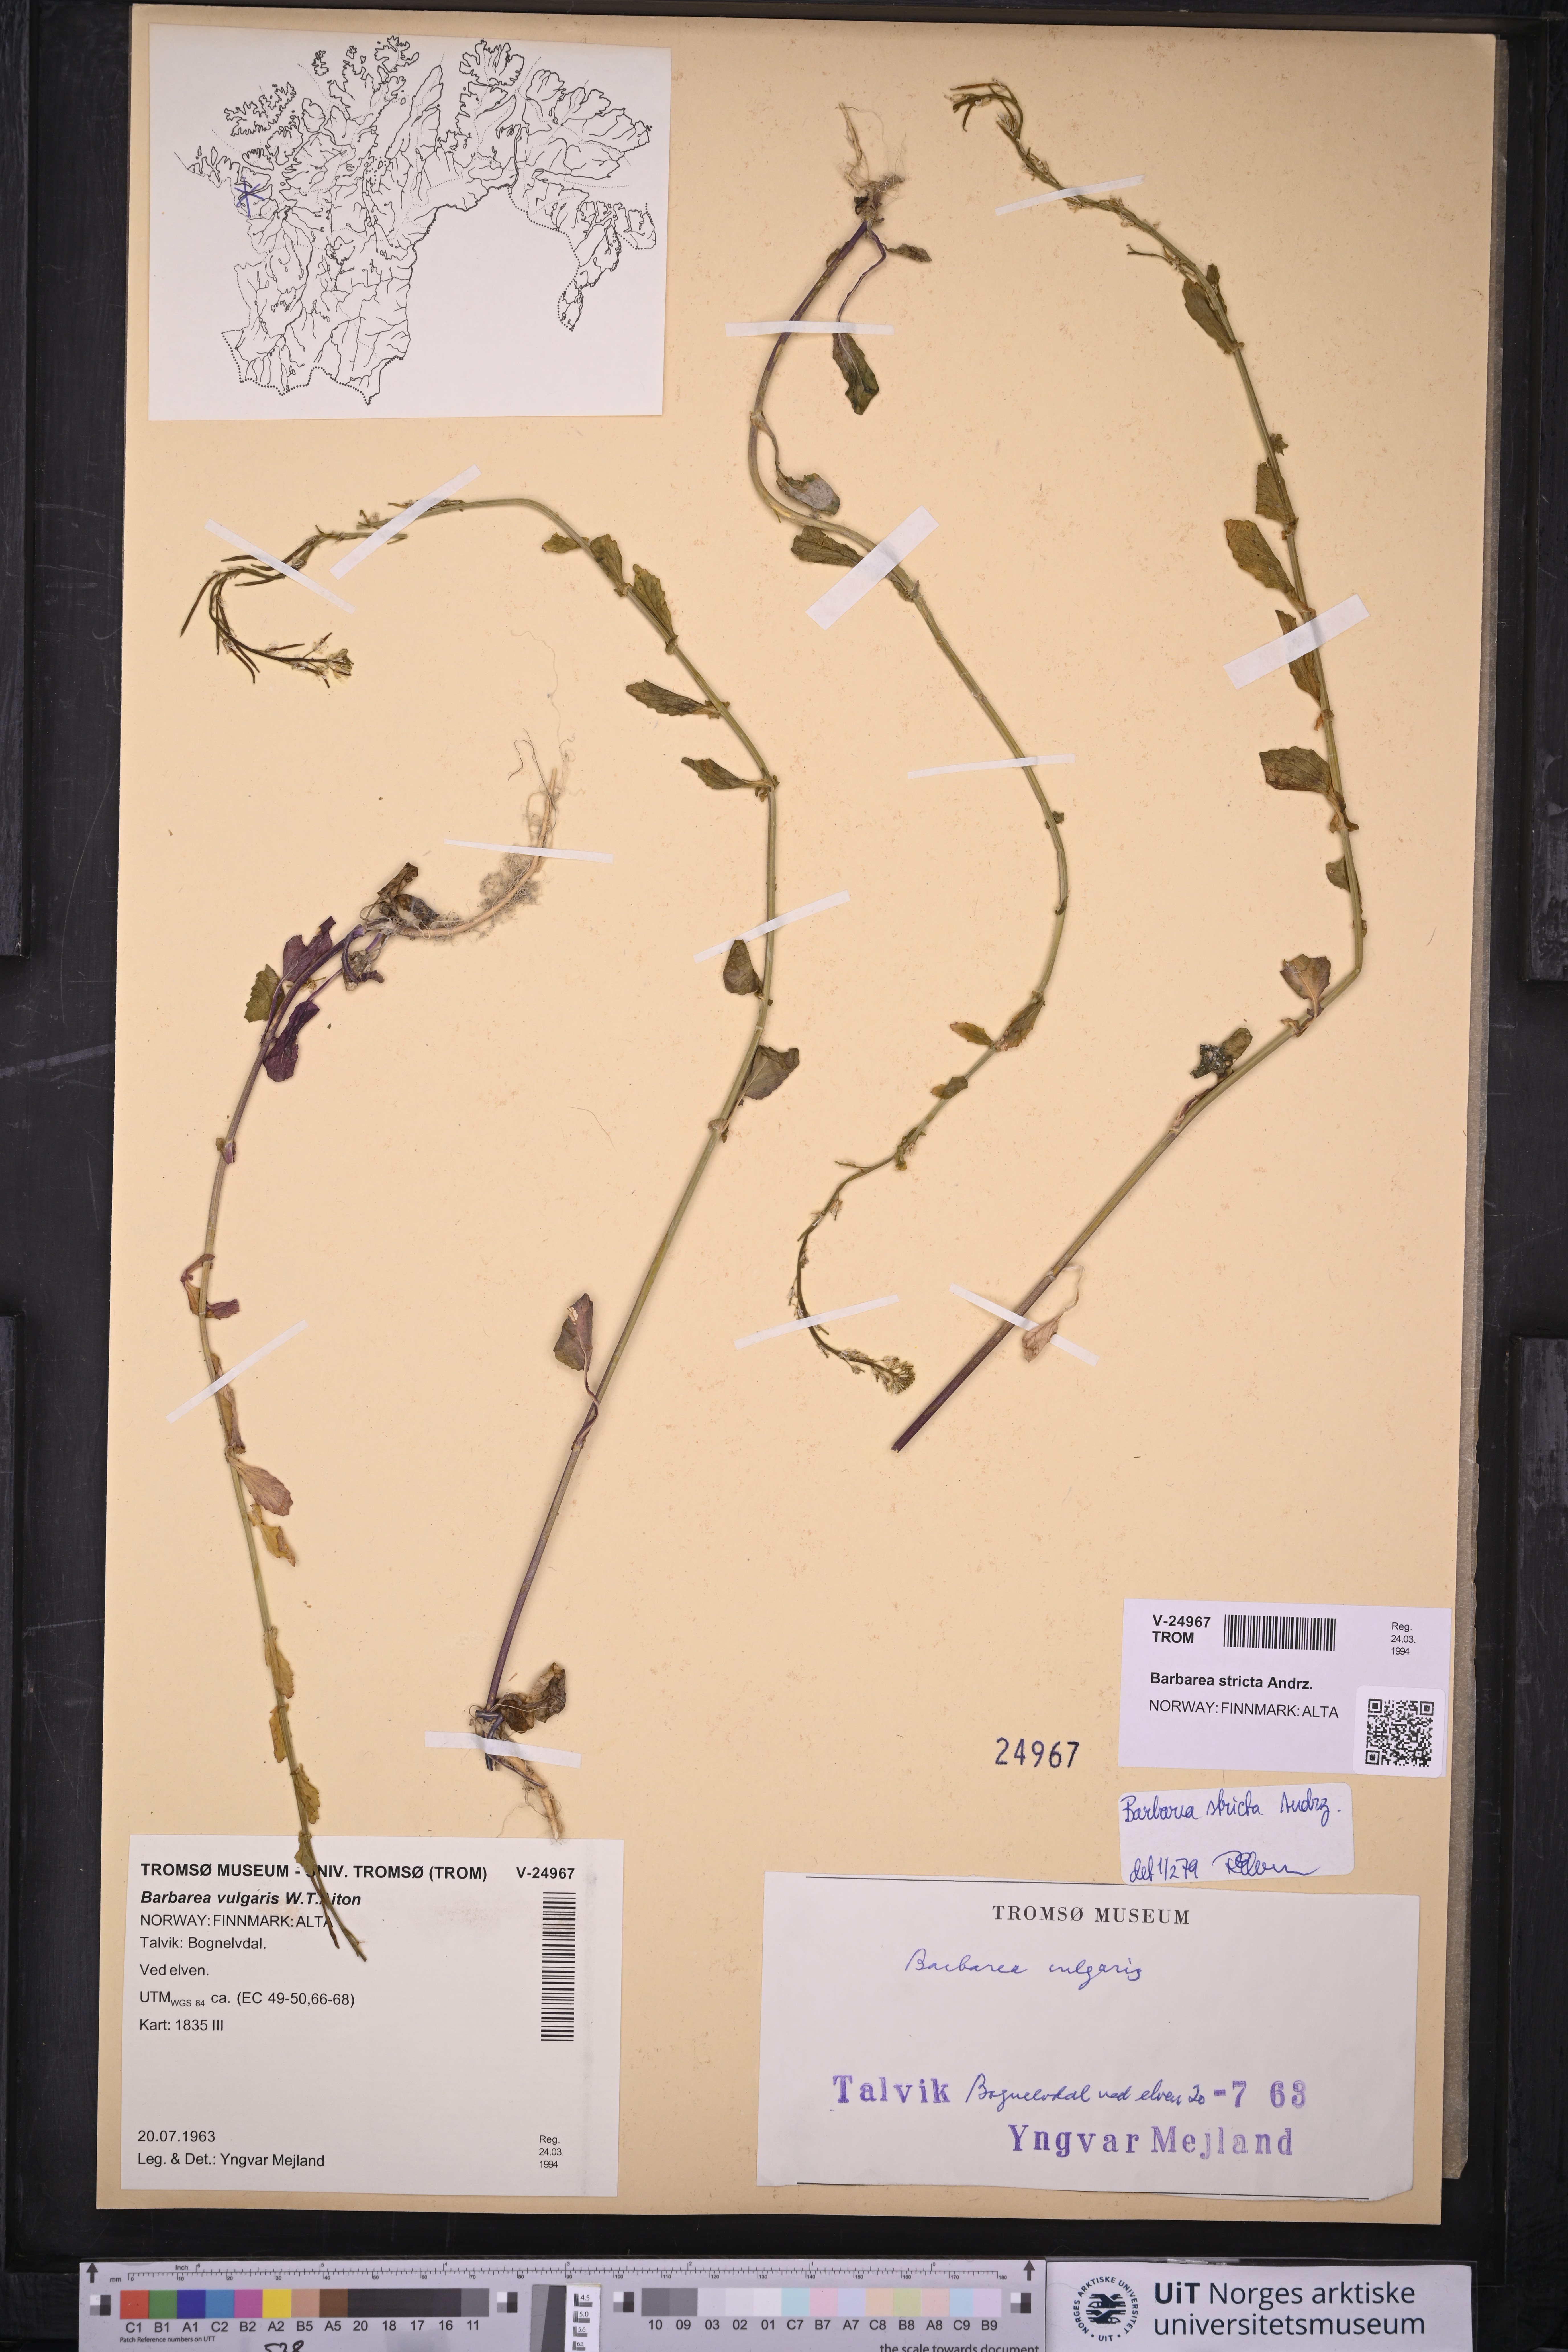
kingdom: Plantae
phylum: Tracheophyta
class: Magnoliopsida
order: Brassicales
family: Brassicaceae
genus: Barbarea
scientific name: Barbarea stricta
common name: Small-flowered winter-cress
